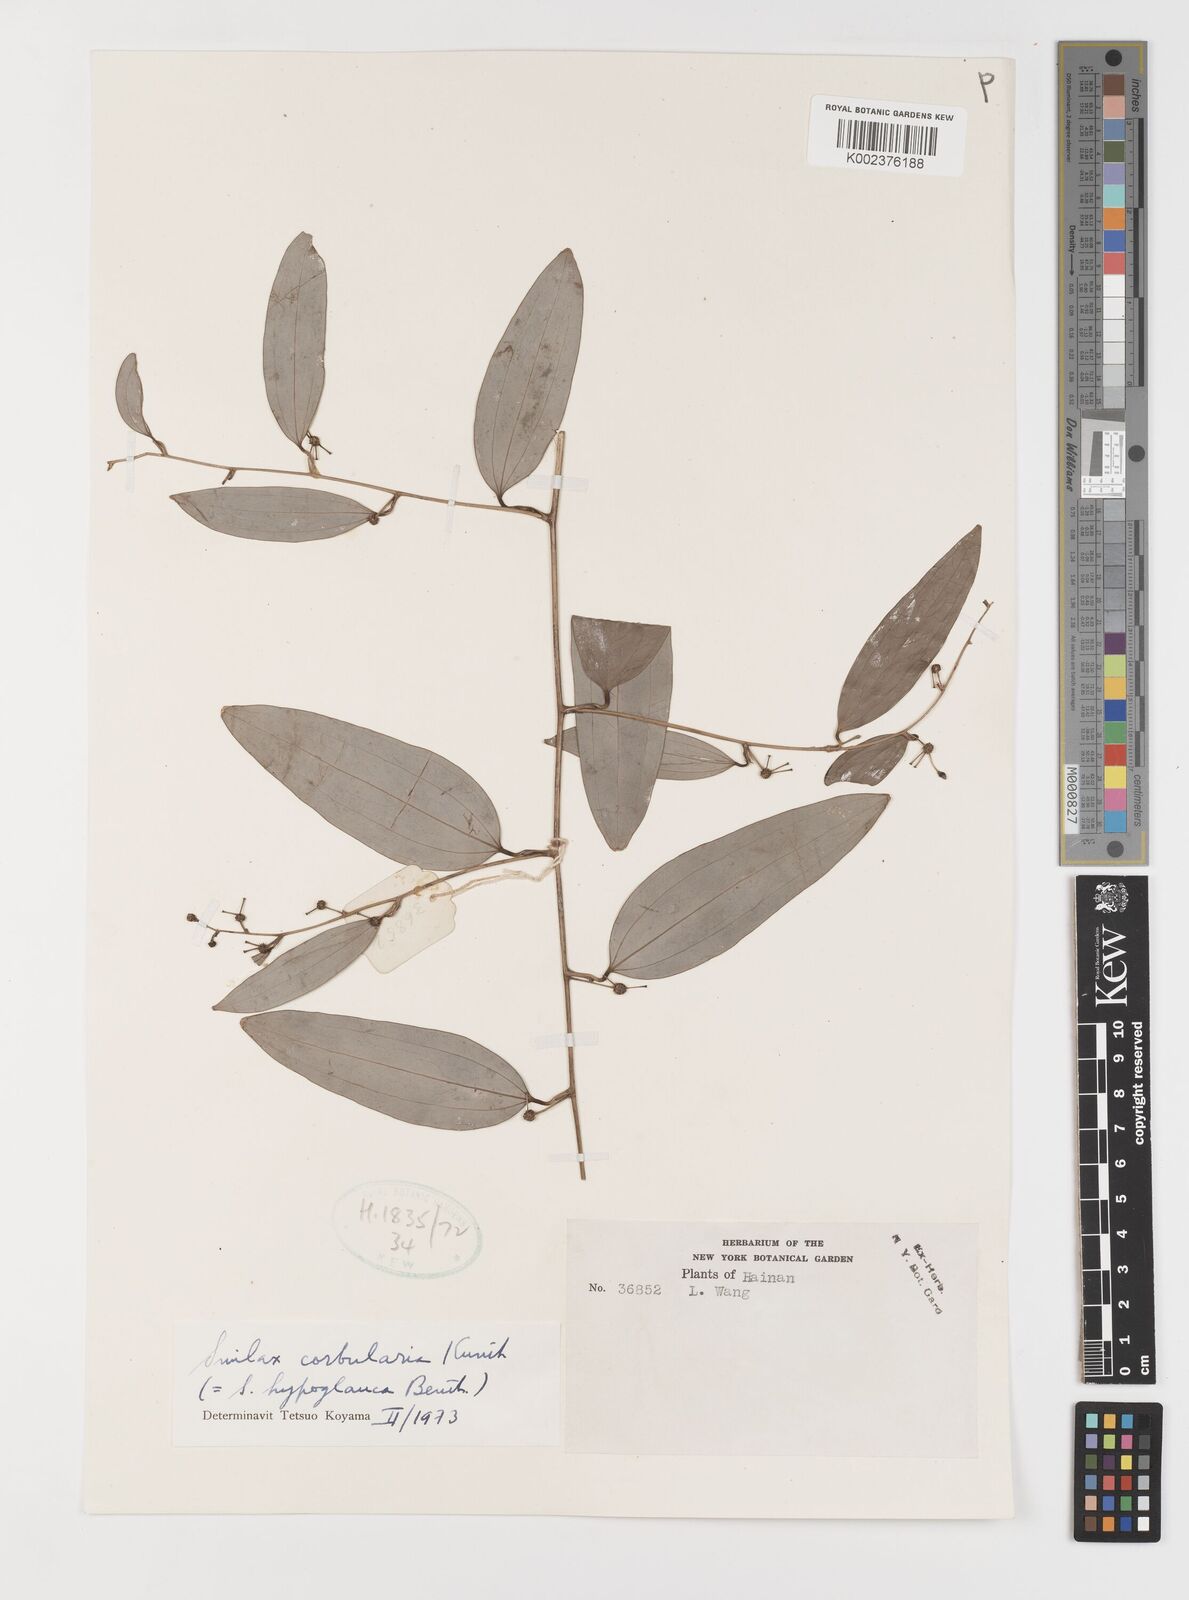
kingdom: Plantae
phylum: Tracheophyta
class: Liliopsida
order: Liliales
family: Smilacaceae
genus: Smilax
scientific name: Smilax corbularia
